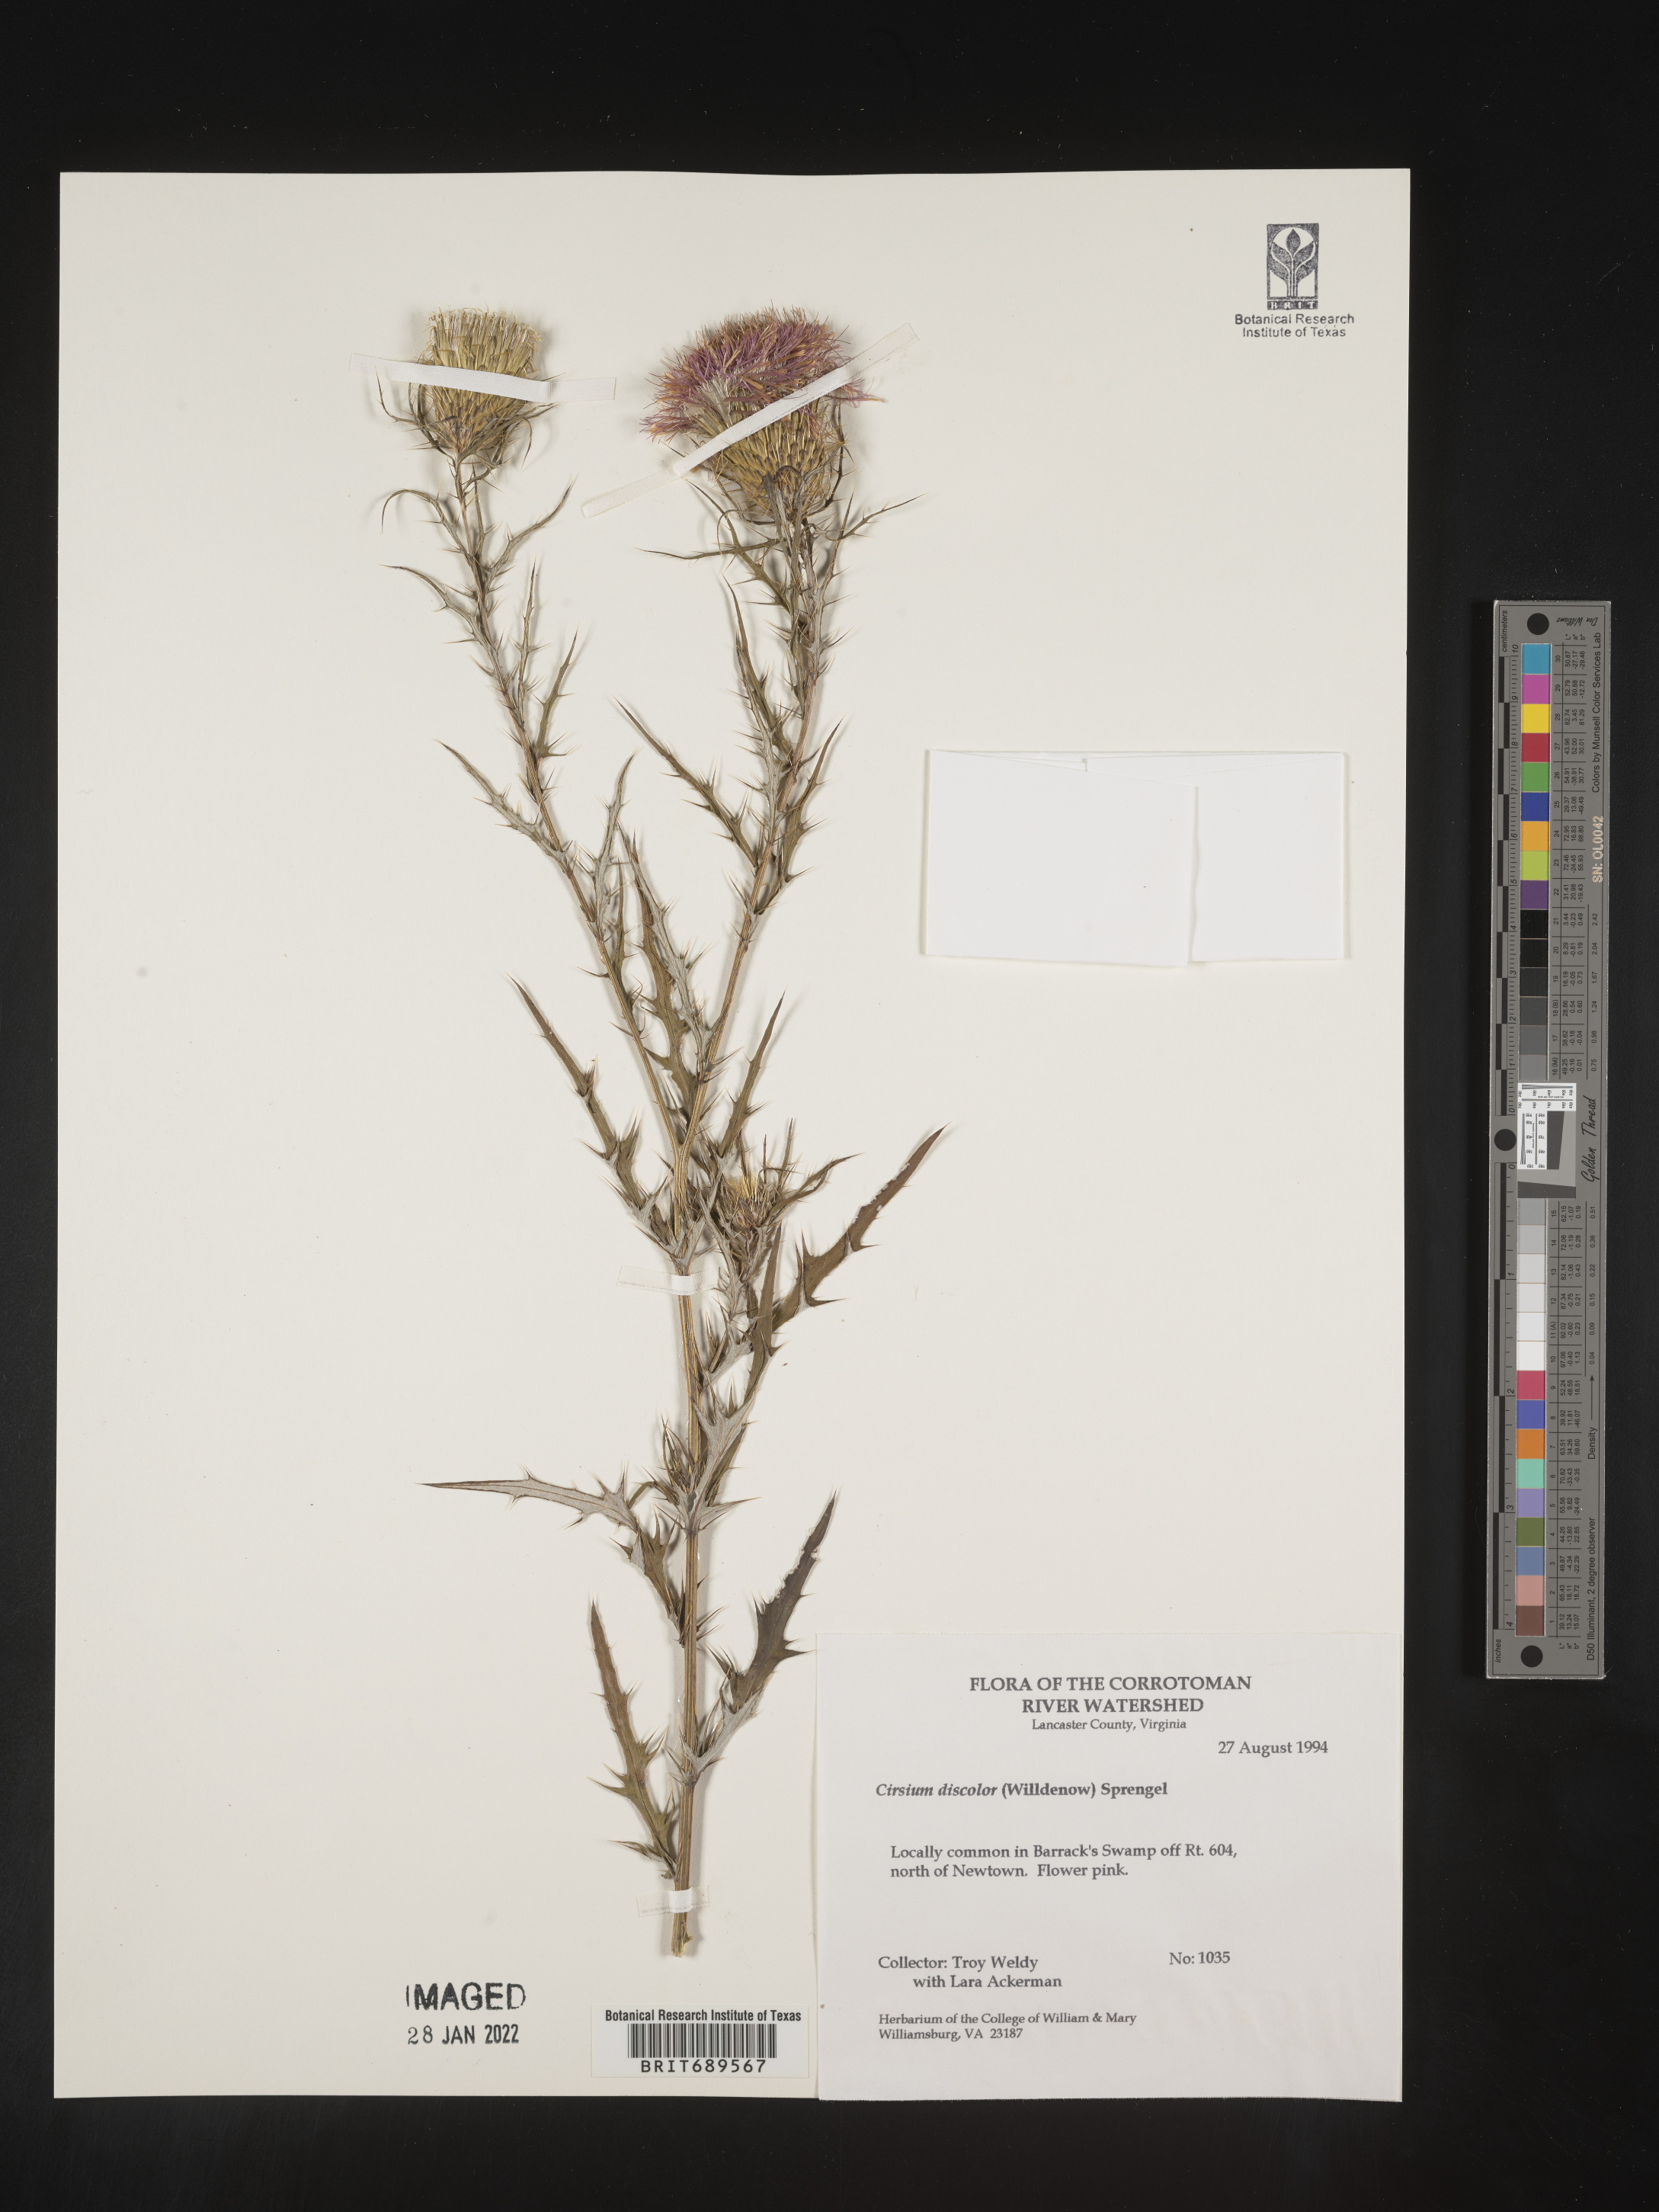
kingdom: Plantae
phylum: Tracheophyta
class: Magnoliopsida
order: Asterales
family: Asteraceae
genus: Cirsium
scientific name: Cirsium discolor
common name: Field thistle
